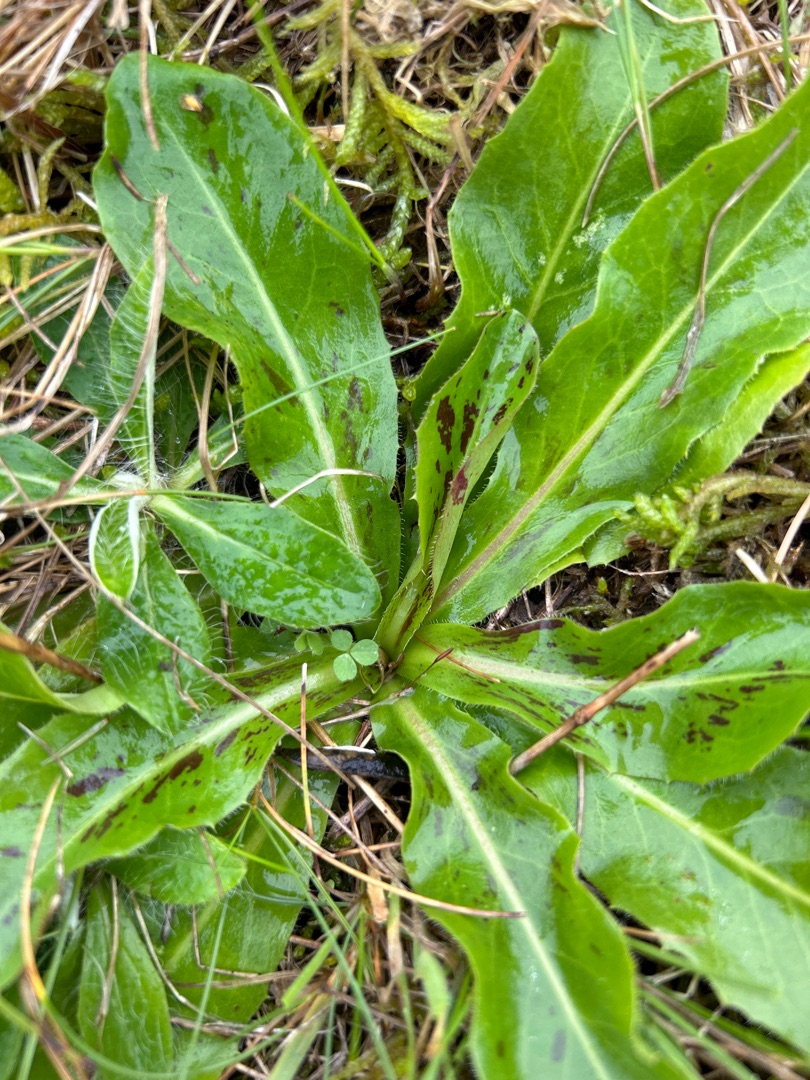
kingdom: Plantae
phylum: Tracheophyta
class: Magnoliopsida
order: Asterales
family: Asteraceae
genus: Trommsdorffia
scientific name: Trommsdorffia maculata
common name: Plettet kongepen
